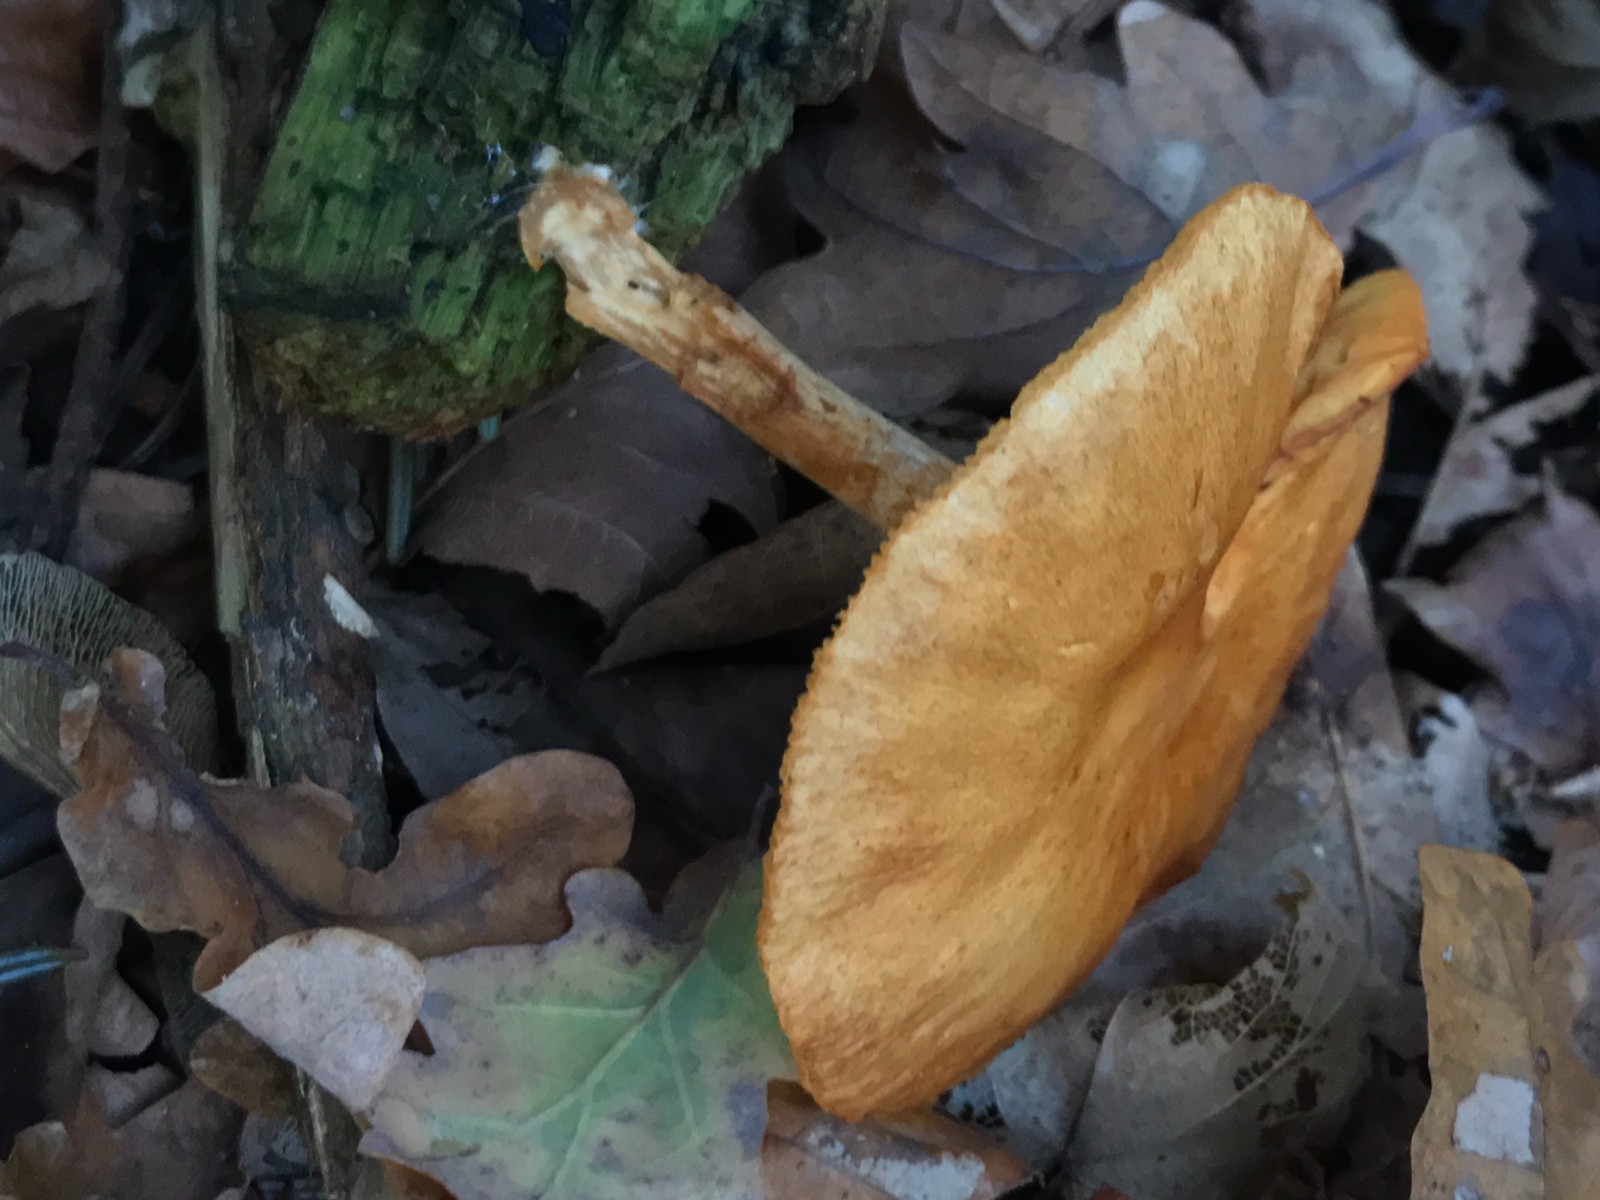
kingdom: Fungi
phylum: Basidiomycota
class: Agaricomycetes
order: Agaricales
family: Hymenogastraceae
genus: Gymnopilus
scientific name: Gymnopilus penetrans
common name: plettet flammehat
